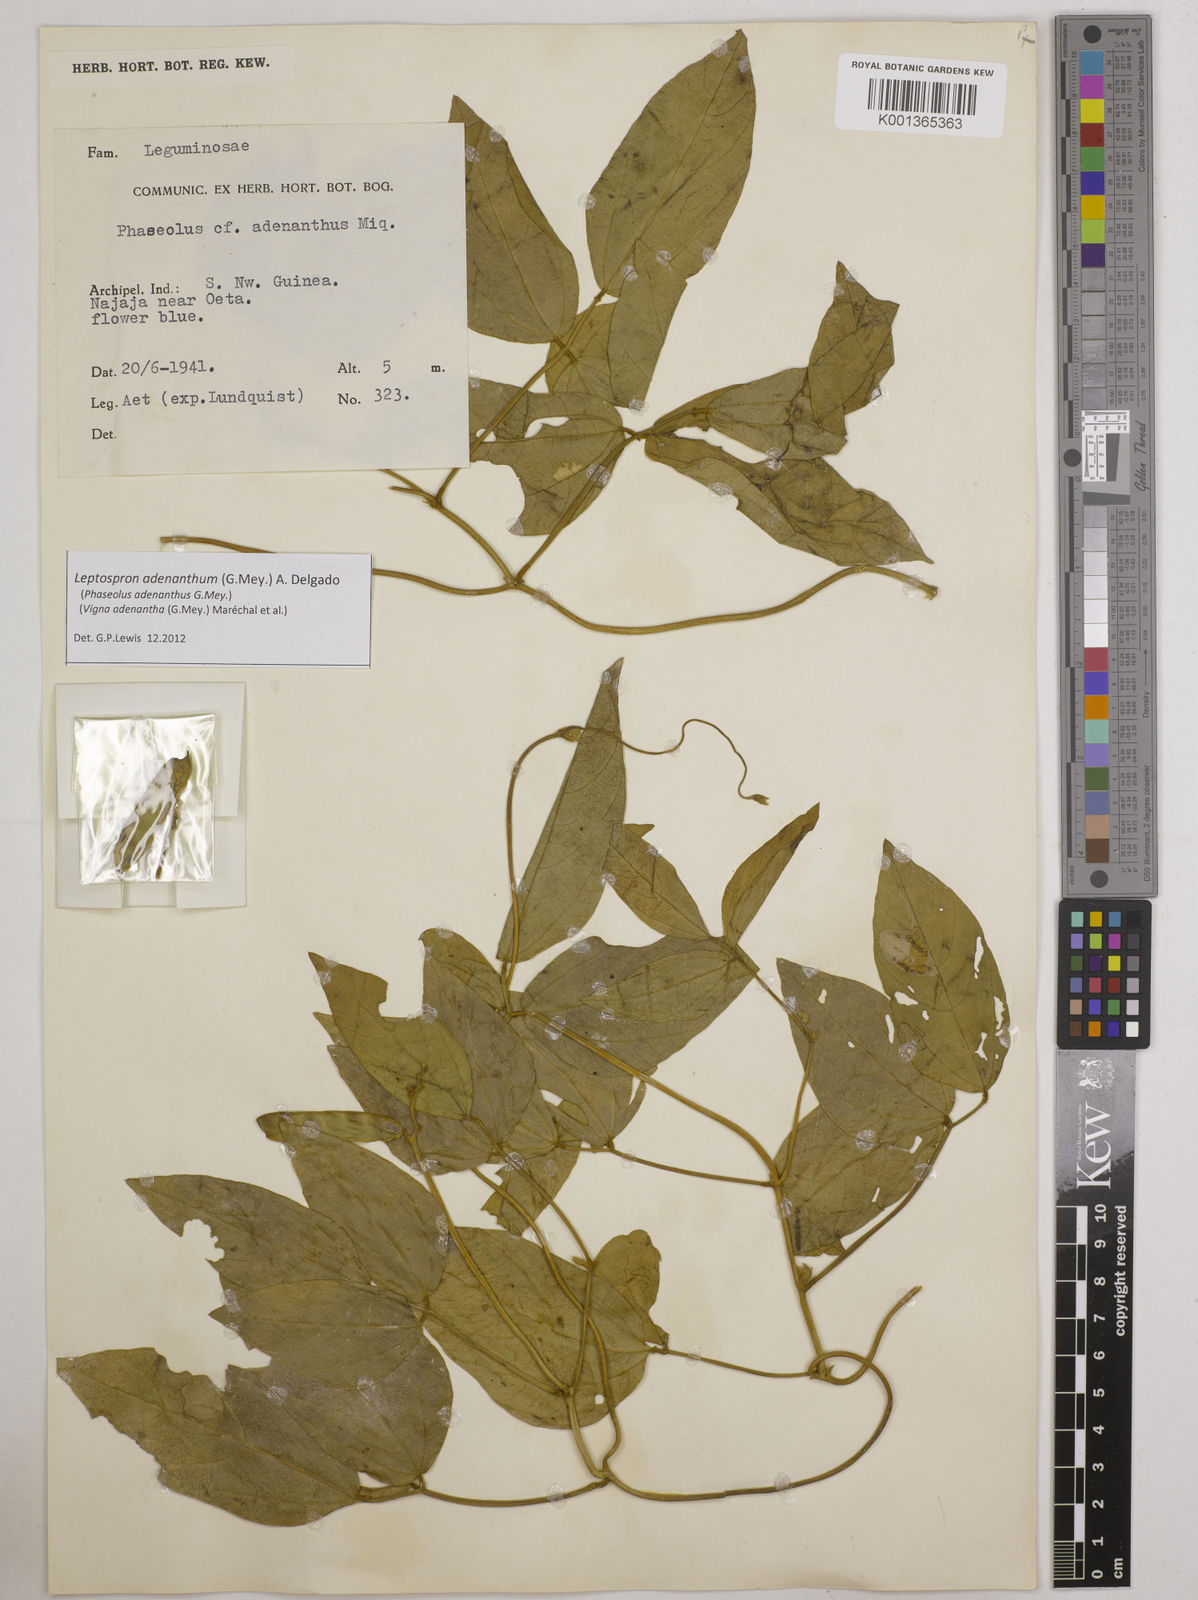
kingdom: Plantae
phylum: Tracheophyta
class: Magnoliopsida
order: Fabales
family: Fabaceae
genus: Leptospron
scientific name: Leptospron adenanthum
